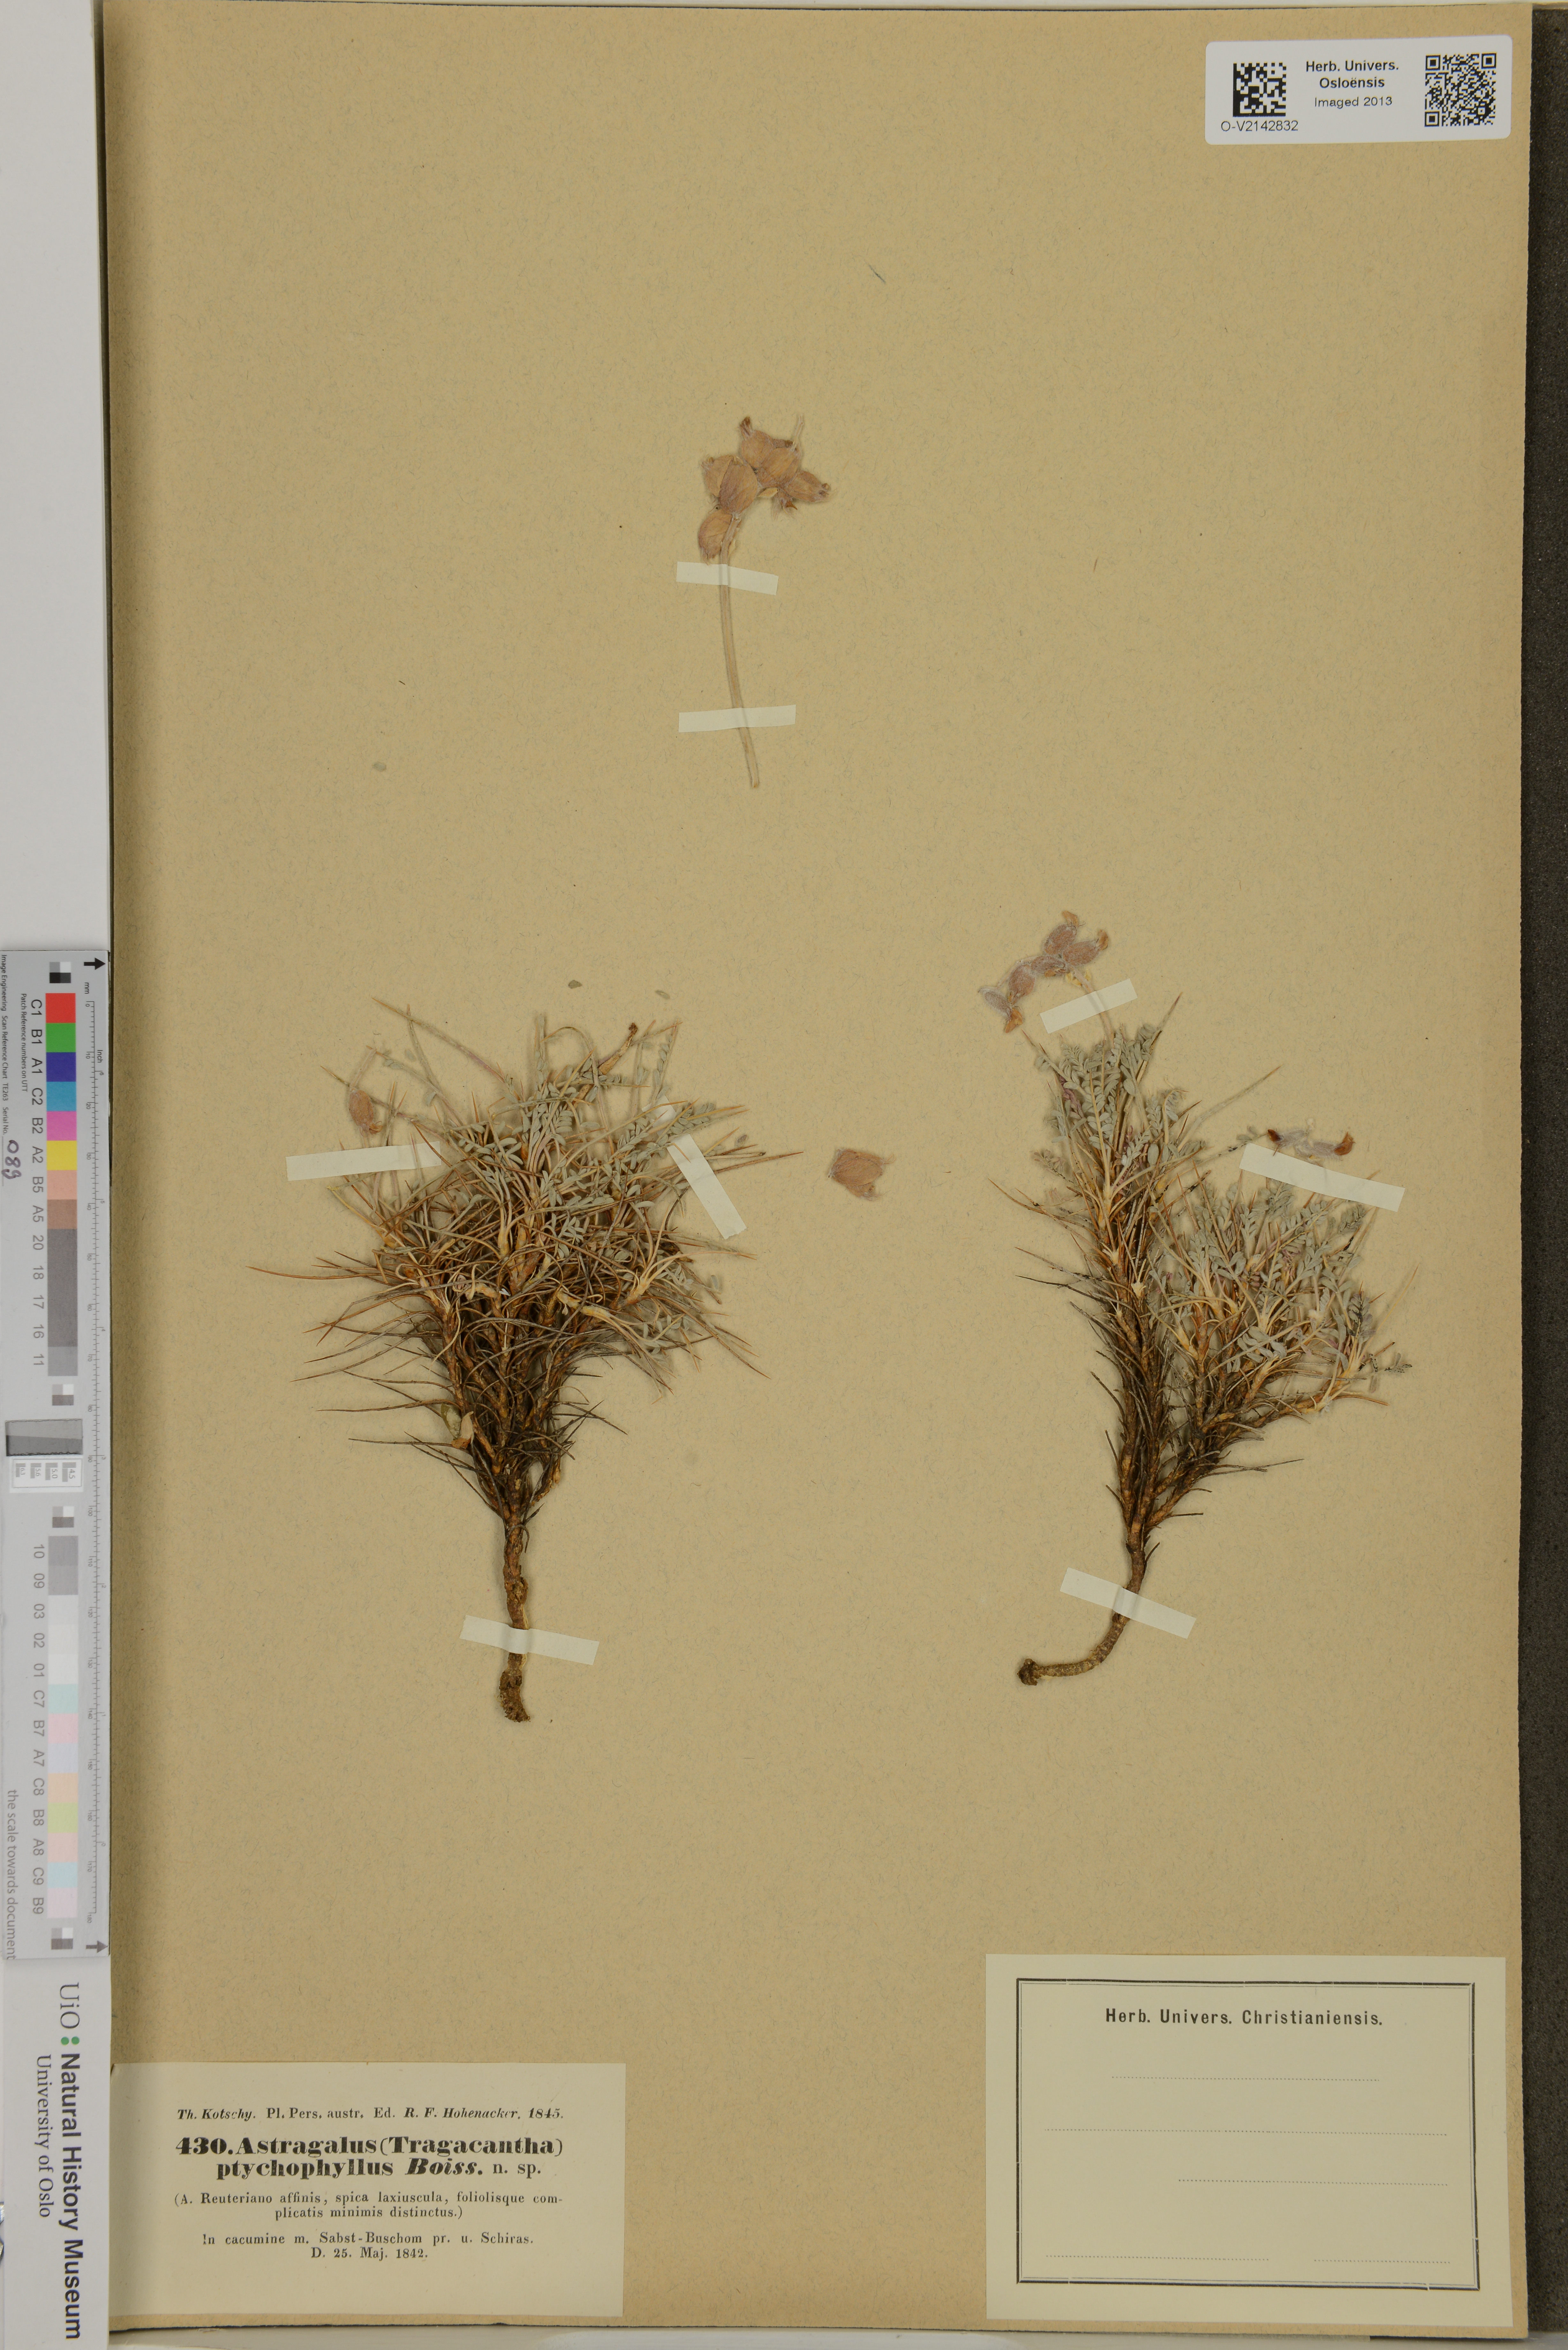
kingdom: Plantae
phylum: Tracheophyta
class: Magnoliopsida
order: Fabales
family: Fabaceae
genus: Astragalus
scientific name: Astragalus ptychophyllus
